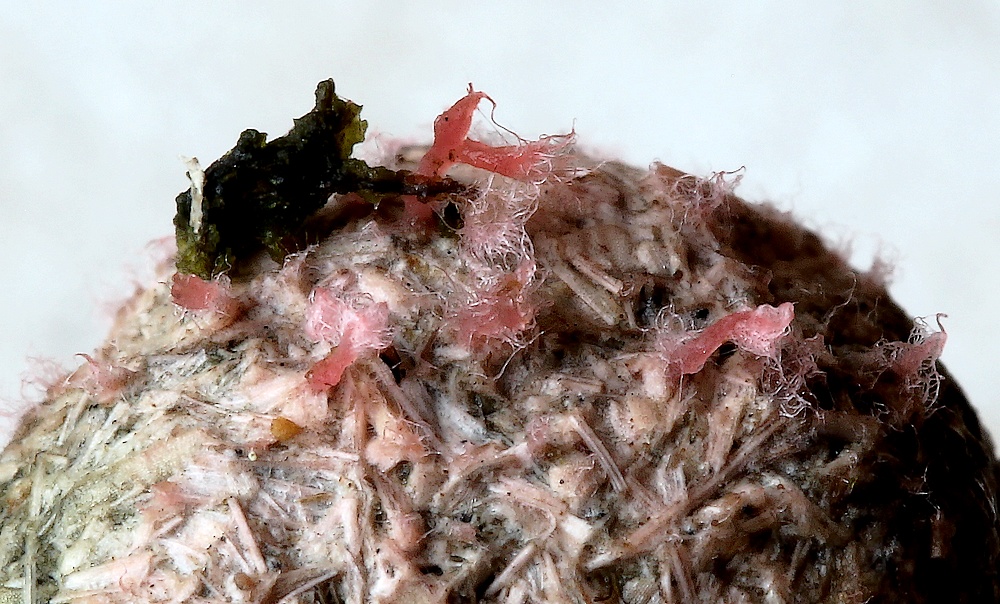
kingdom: Fungi
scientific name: Fungi
